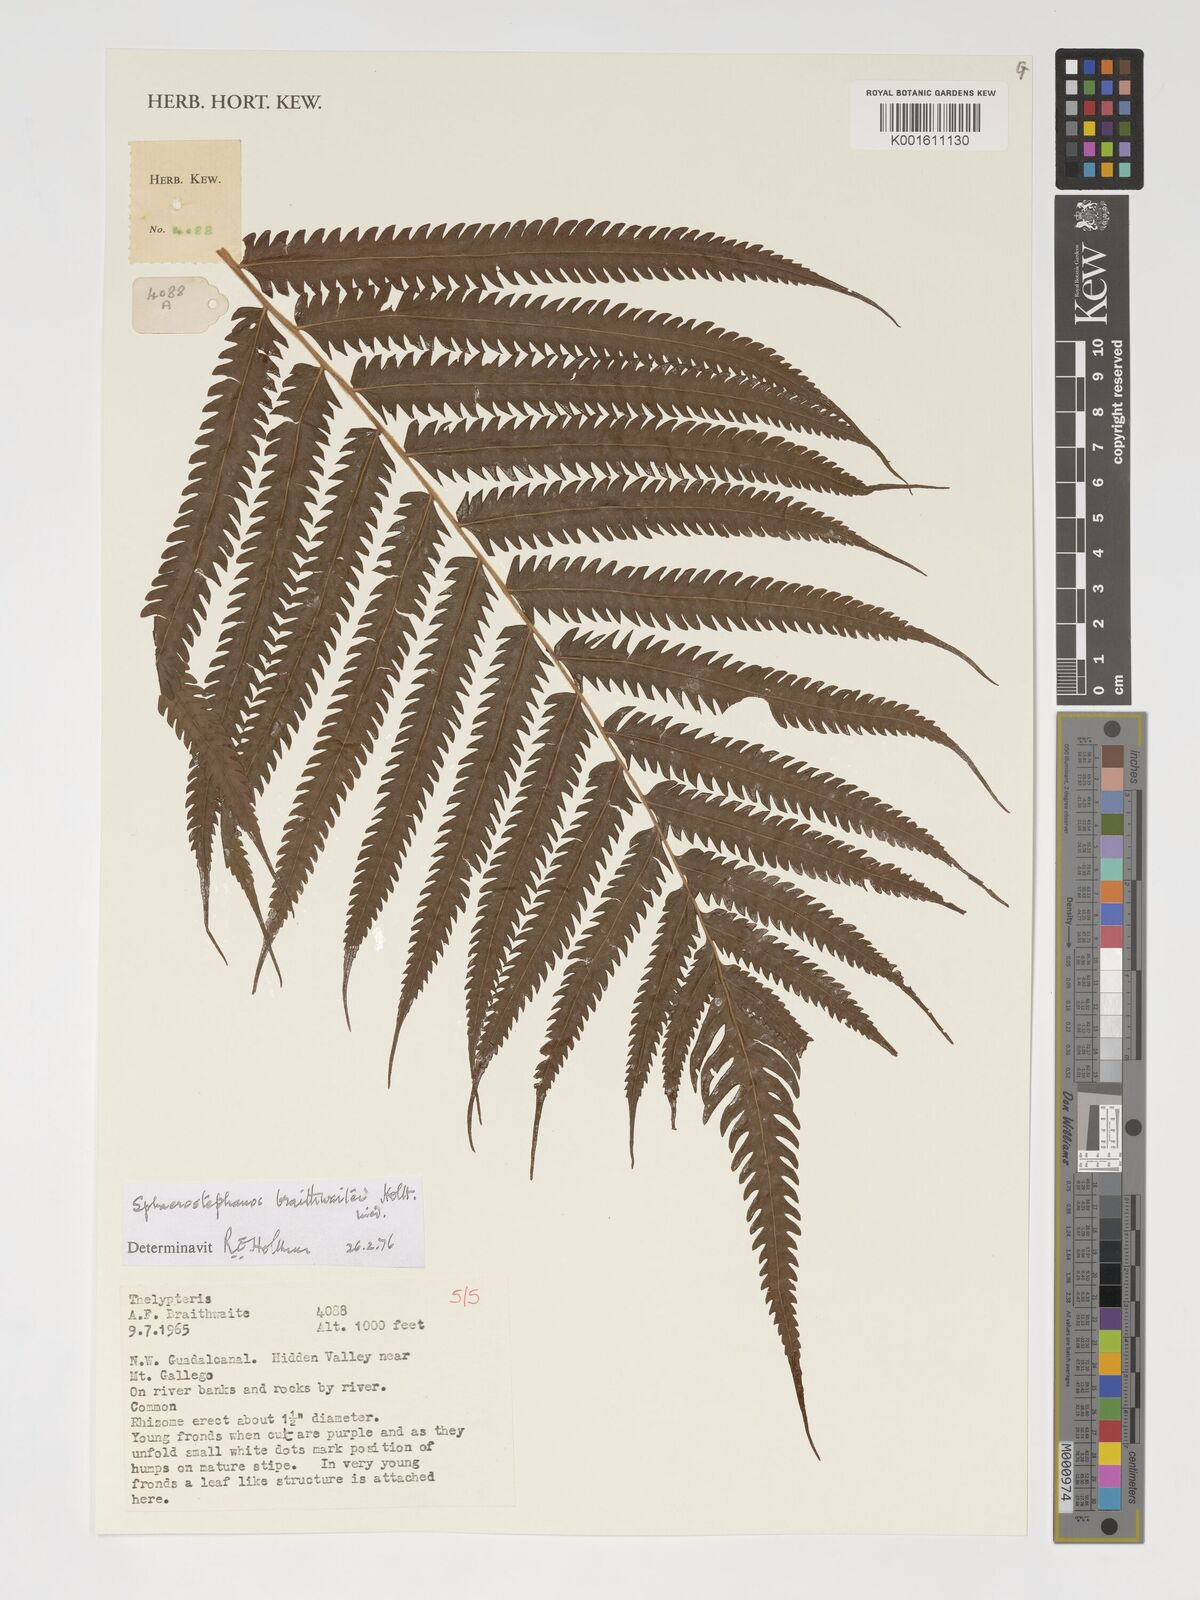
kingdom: Plantae
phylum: Tracheophyta
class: Polypodiopsida
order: Polypodiales
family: Thelypteridaceae
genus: Sphaerostephanos
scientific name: Sphaerostephanos braithwaitei
